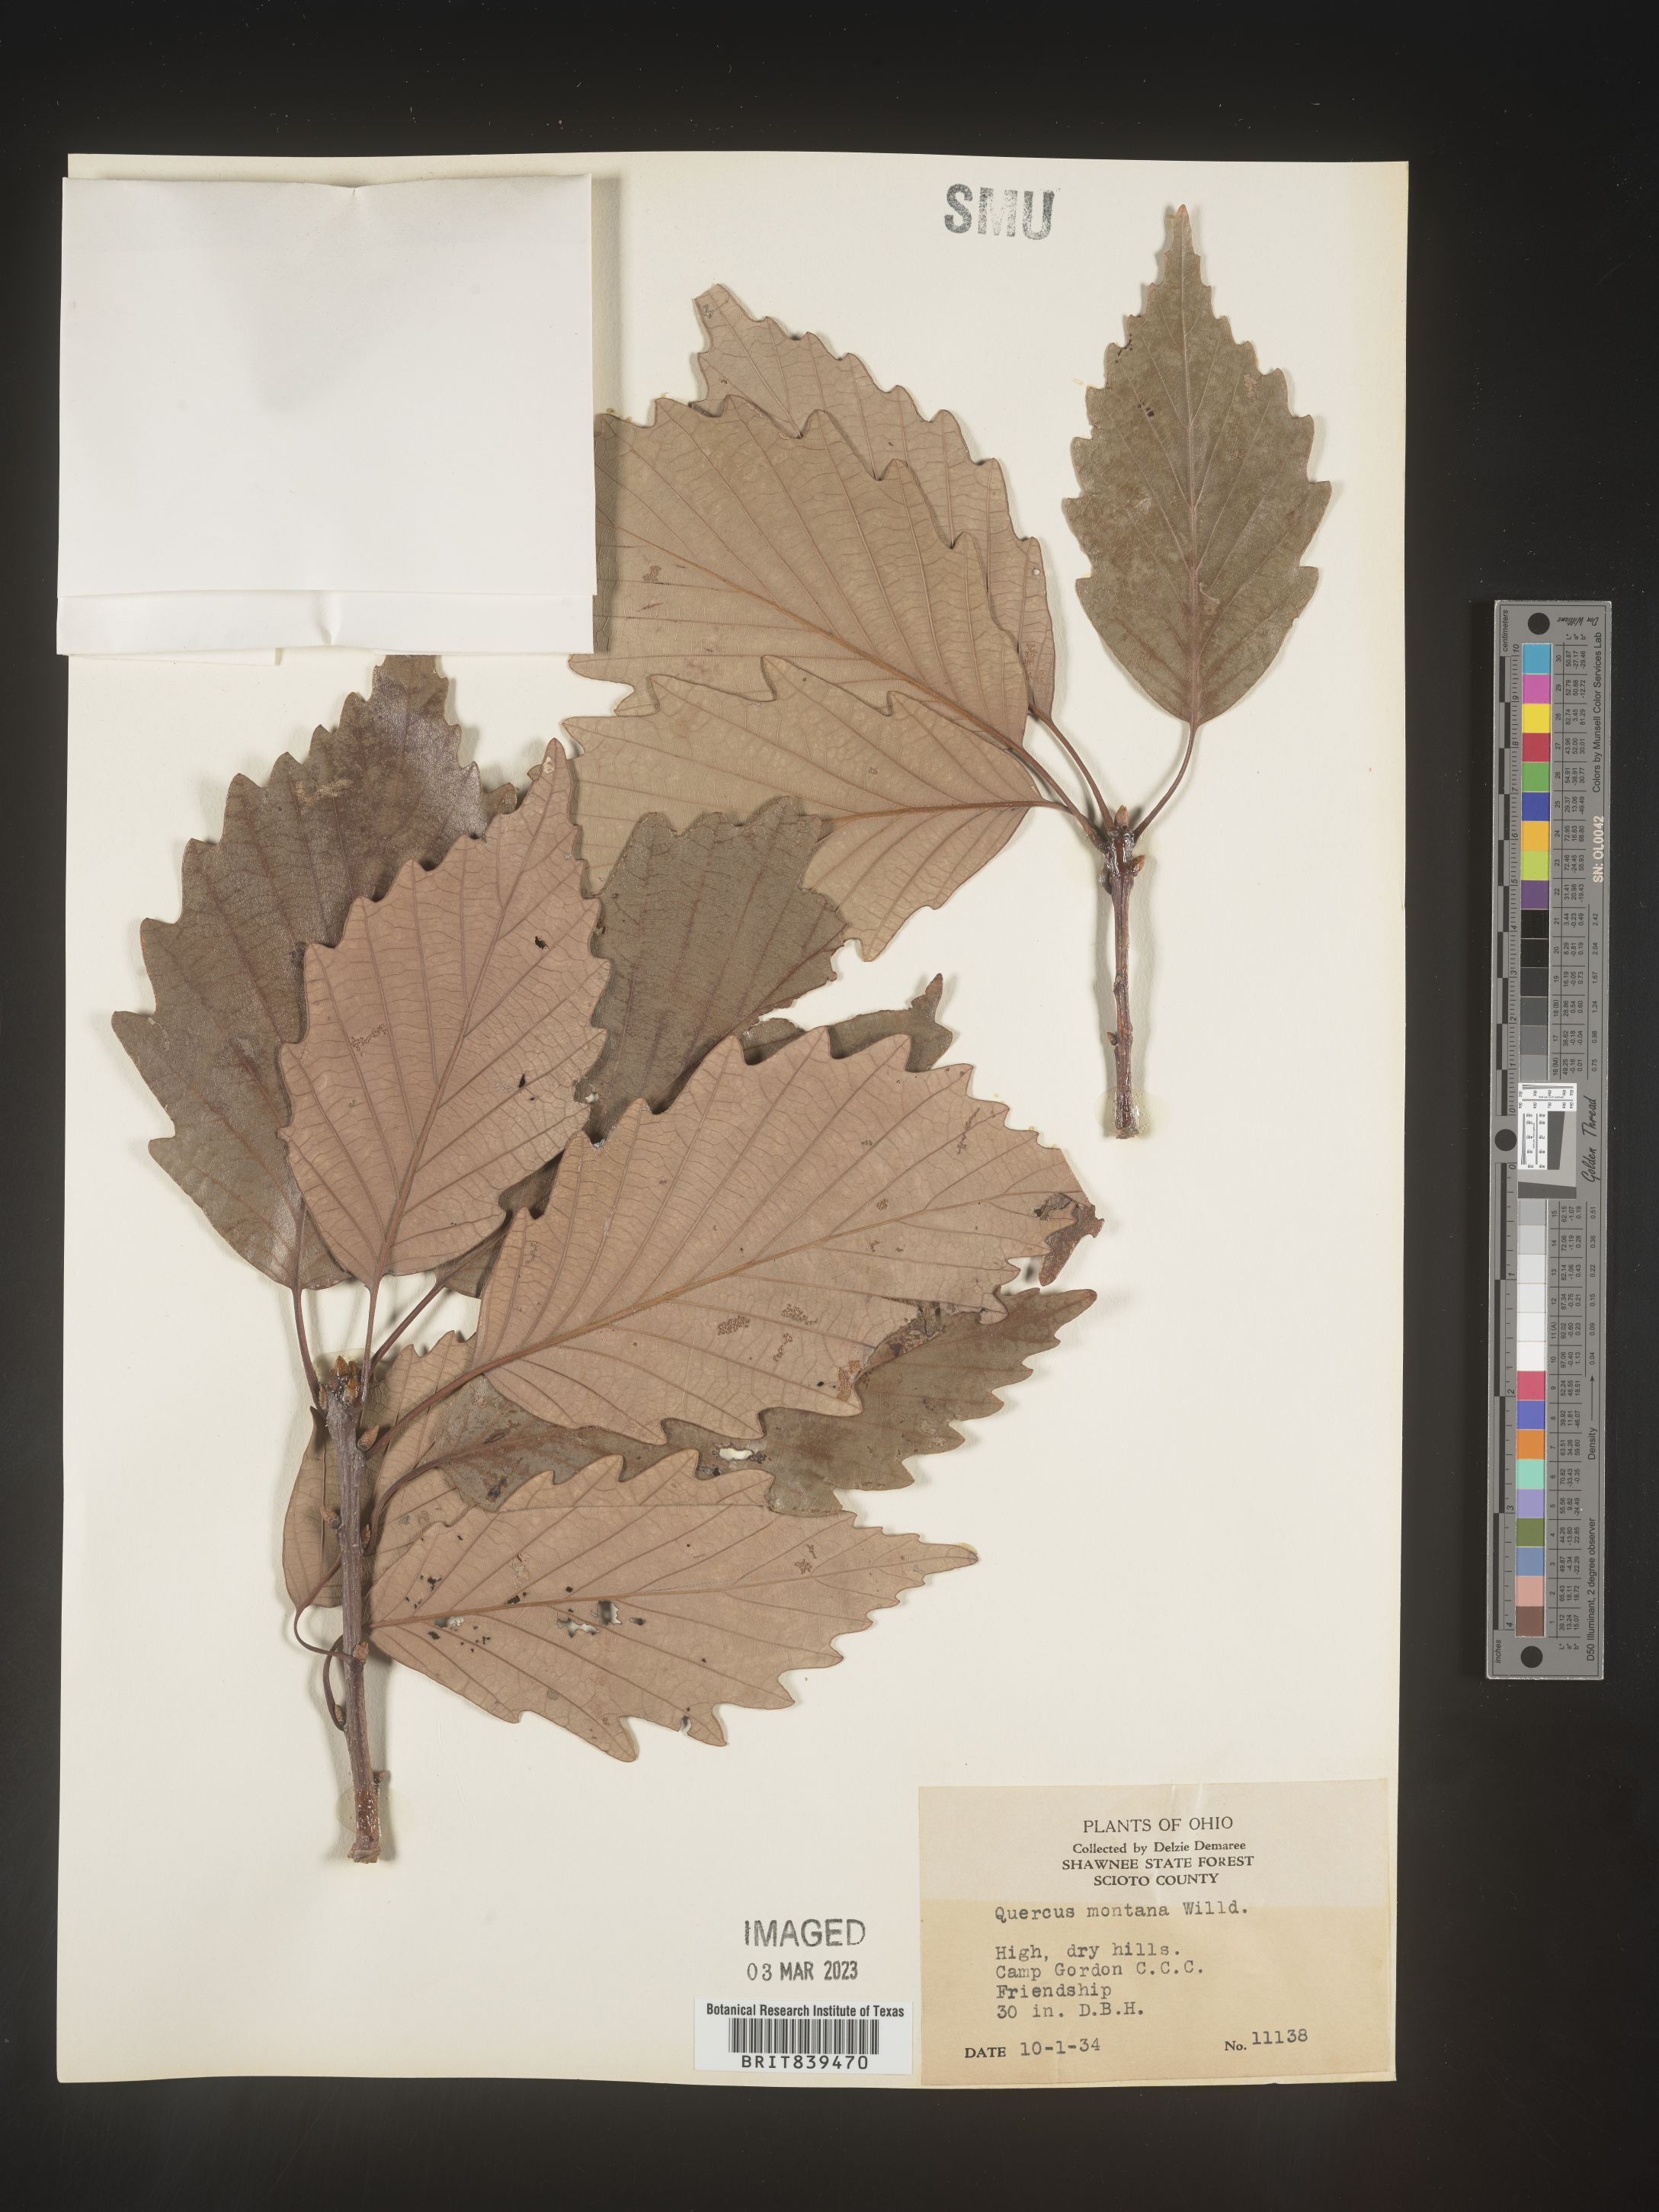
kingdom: Plantae
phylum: Tracheophyta
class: Magnoliopsida
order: Fagales
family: Fagaceae
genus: Quercus
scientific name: Quercus montana
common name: Chestnut oak
